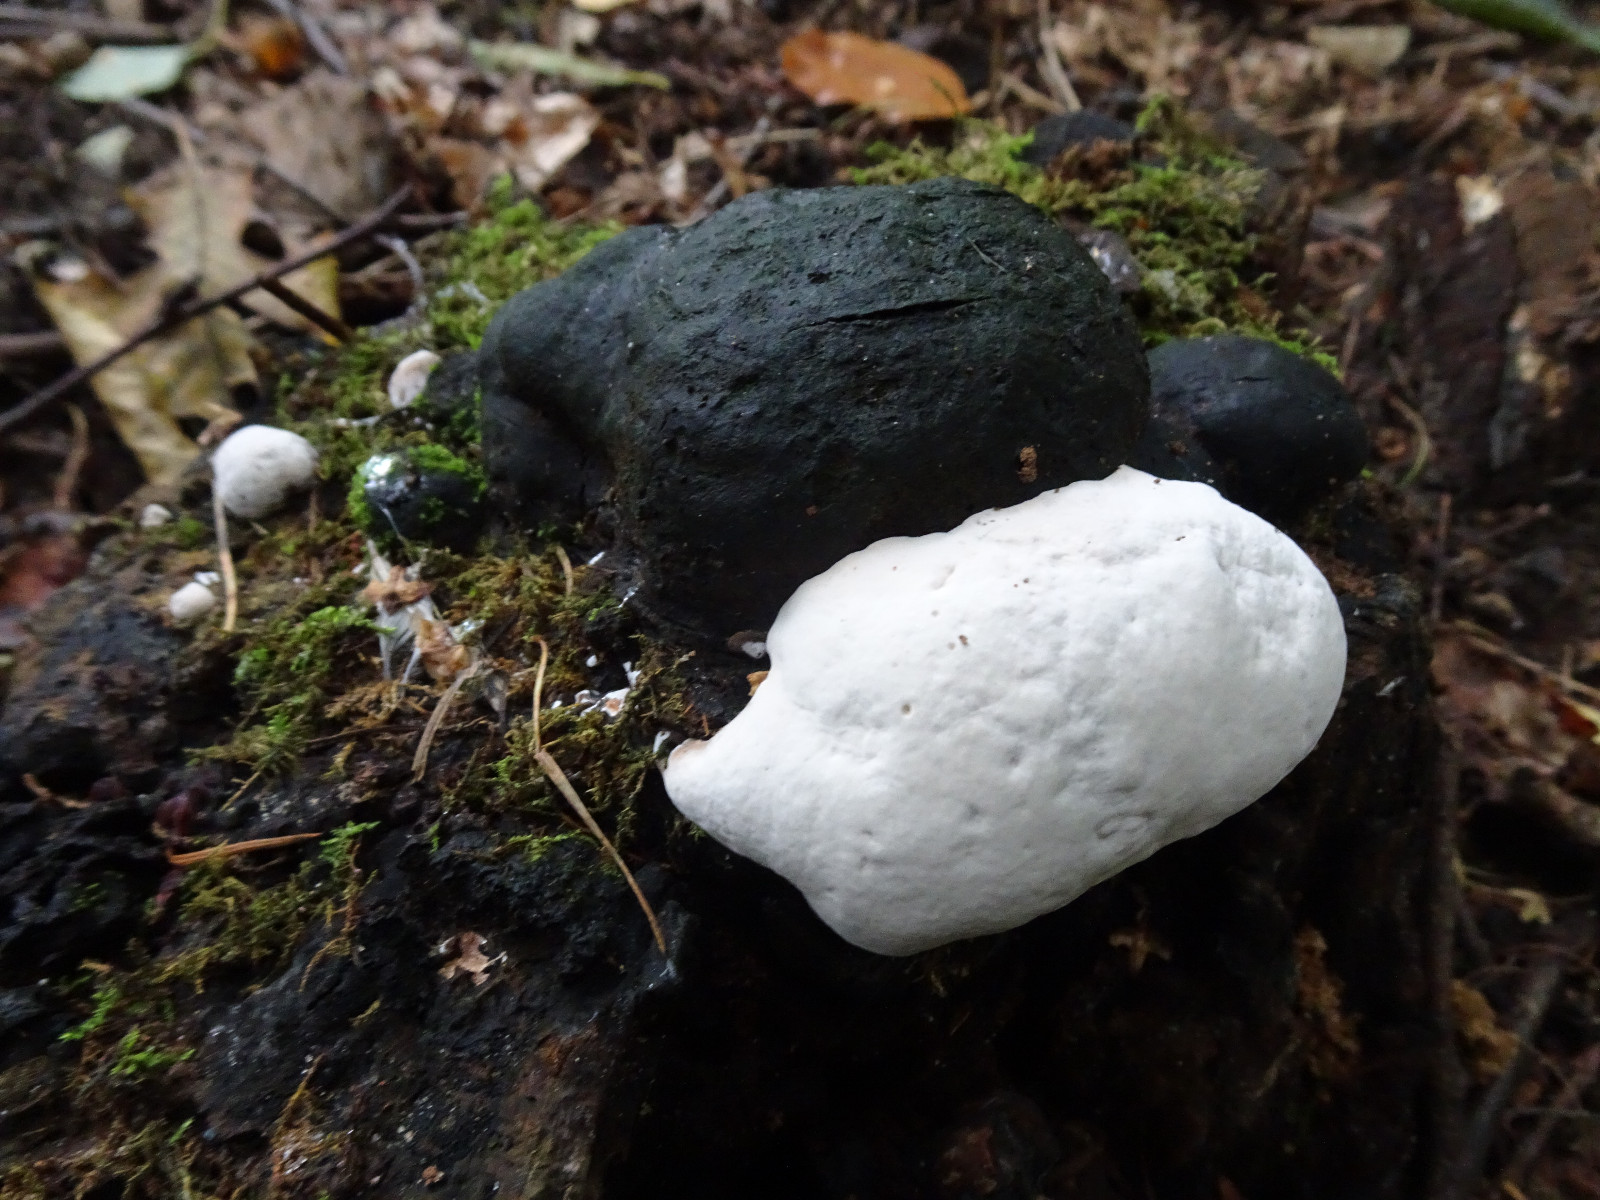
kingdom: Fungi
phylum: Basidiomycota
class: Agaricomycetes
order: Polyporales
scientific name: Polyporales
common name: poresvampordenen
